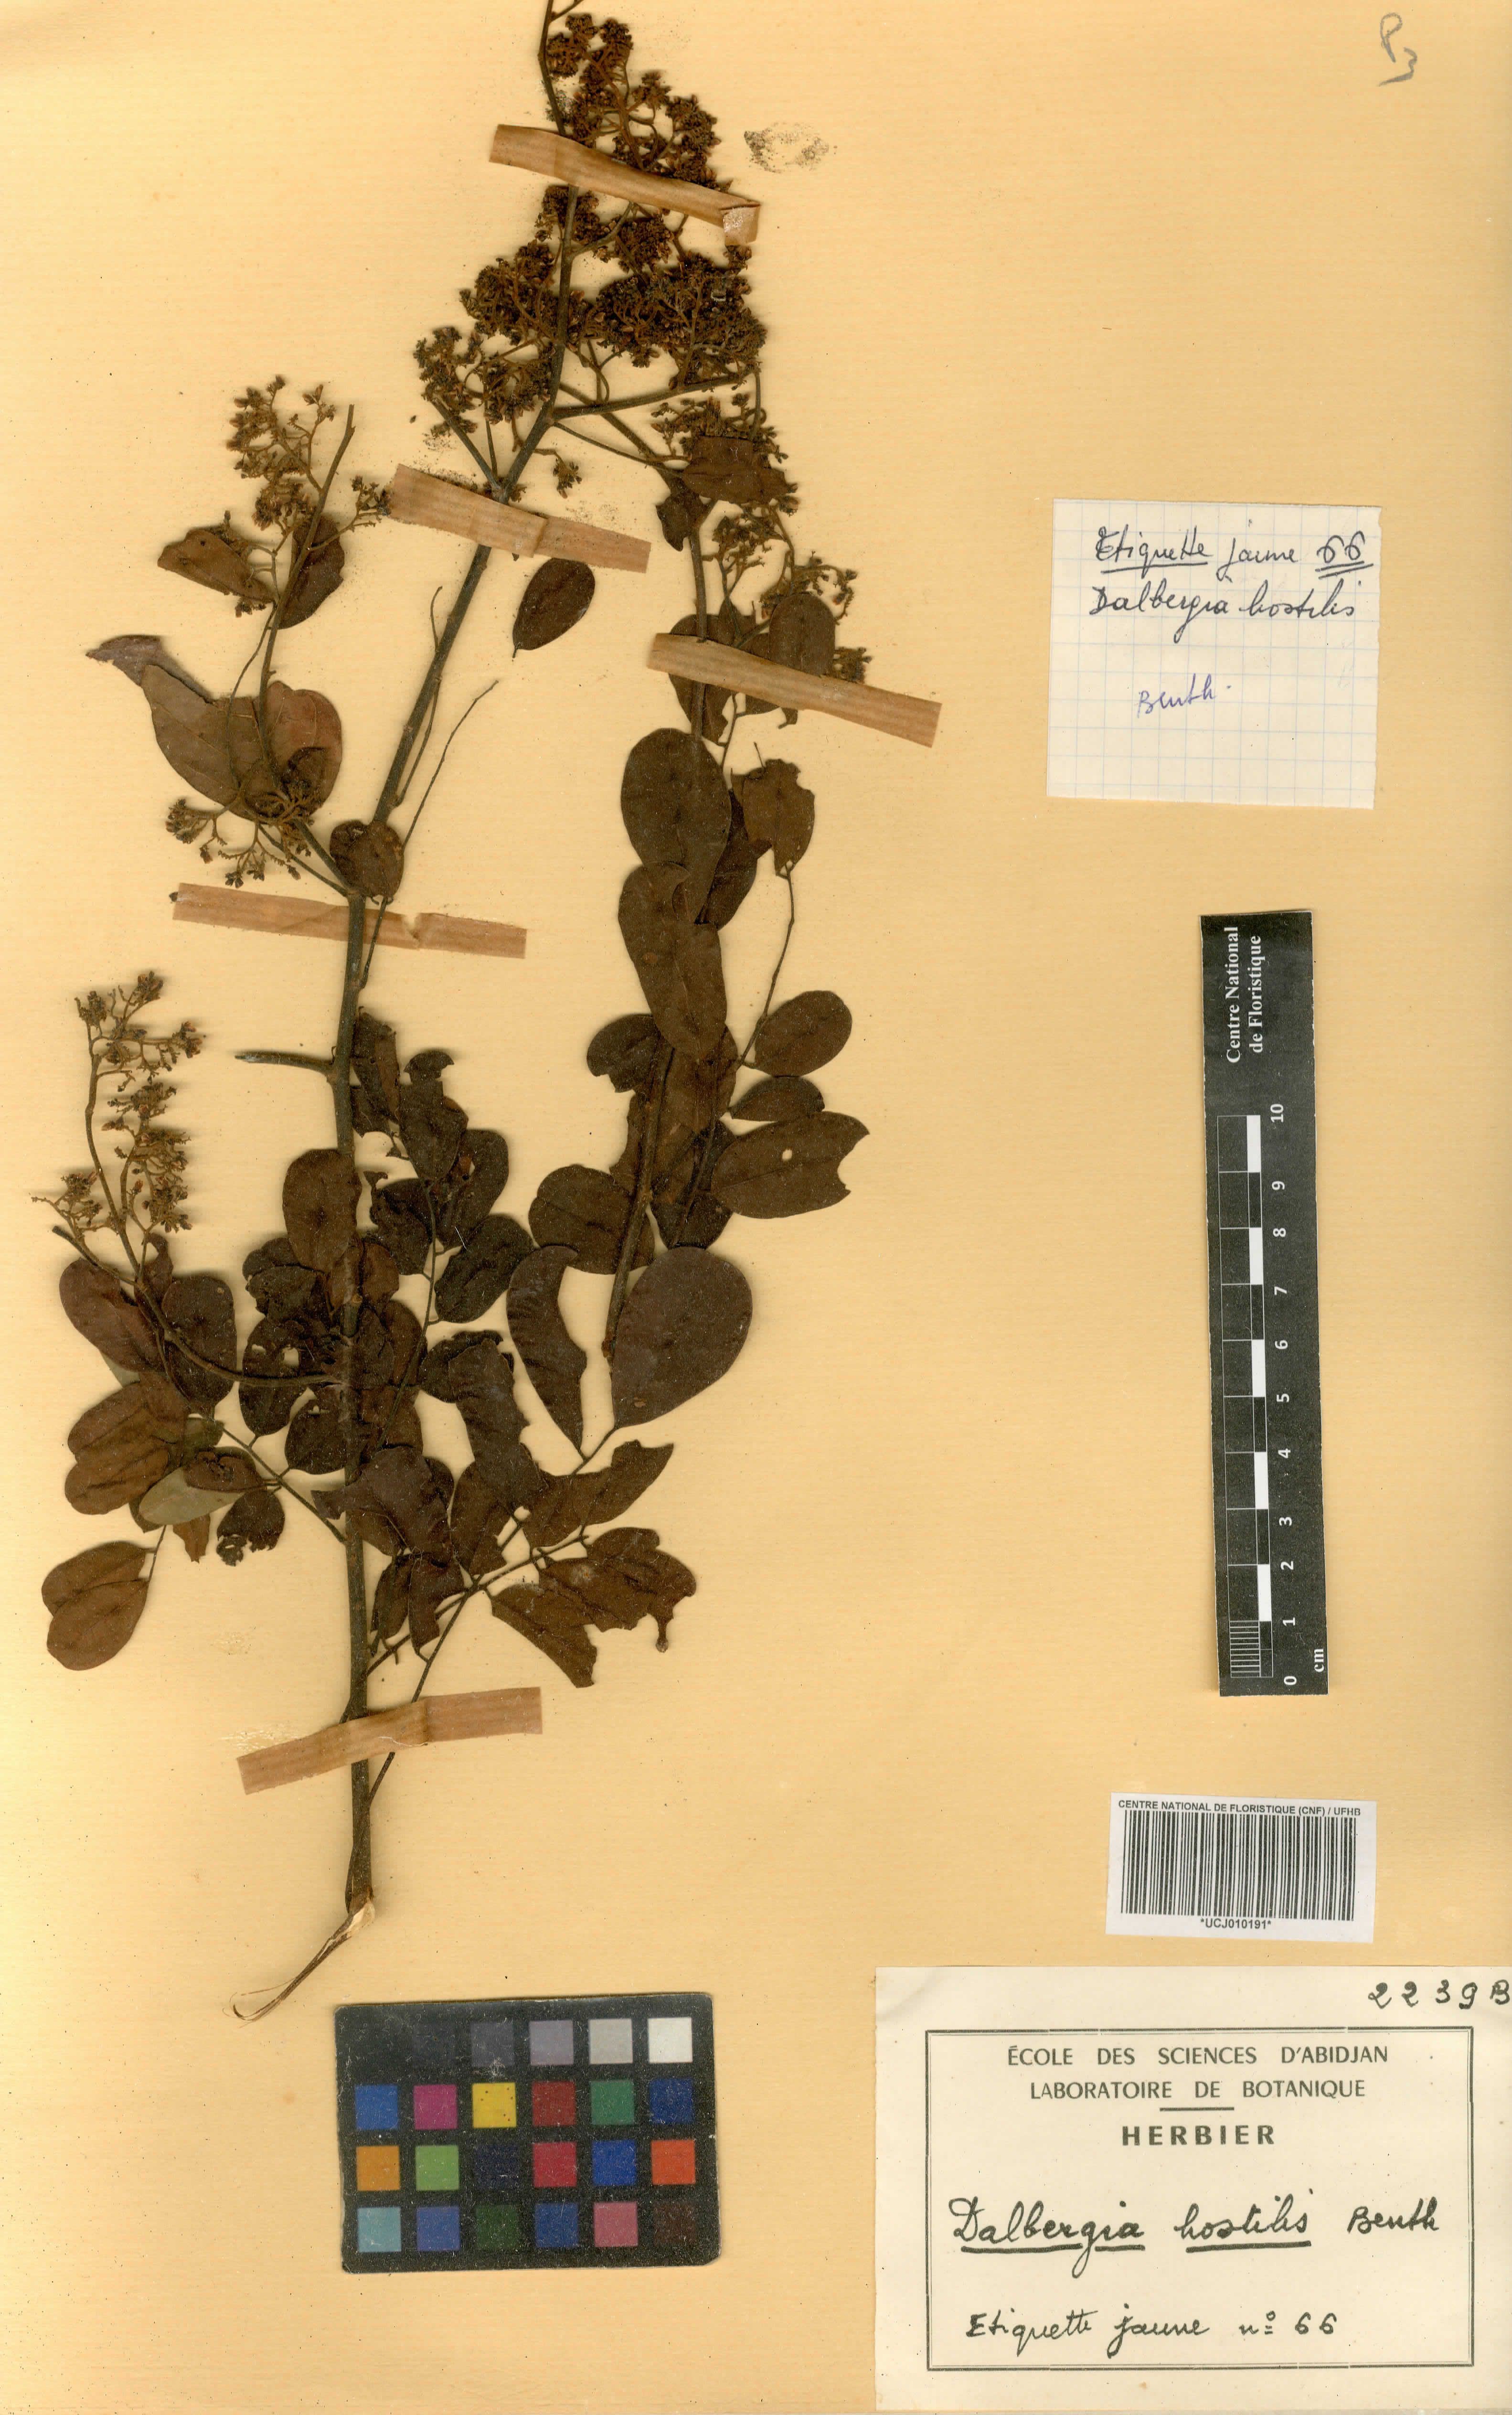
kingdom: Plantae
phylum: Tracheophyta
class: Magnoliopsida
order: Fabales
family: Fabaceae
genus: Dalbergia
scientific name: Dalbergia hostilis
